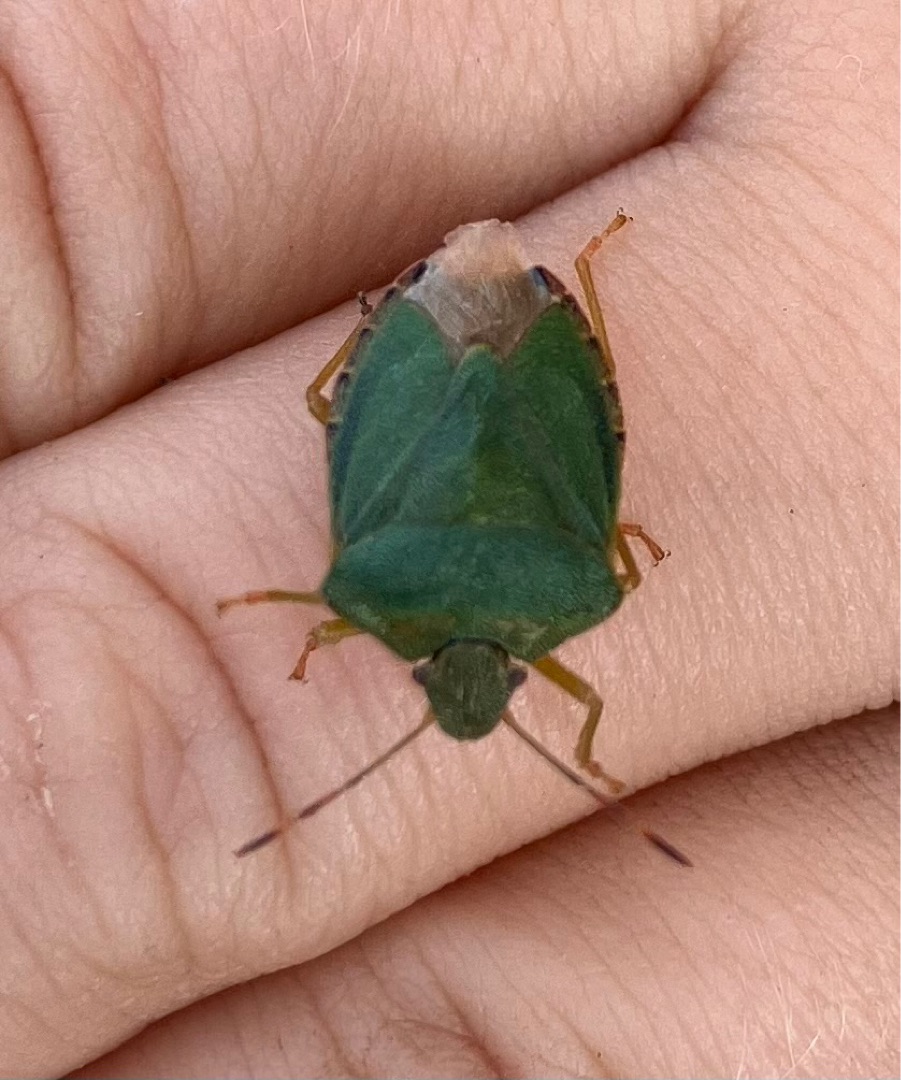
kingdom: Animalia
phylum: Arthropoda
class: Insecta
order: Hemiptera
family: Pentatomidae
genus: Palomena
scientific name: Palomena prasina
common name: Grøn bredtæge
